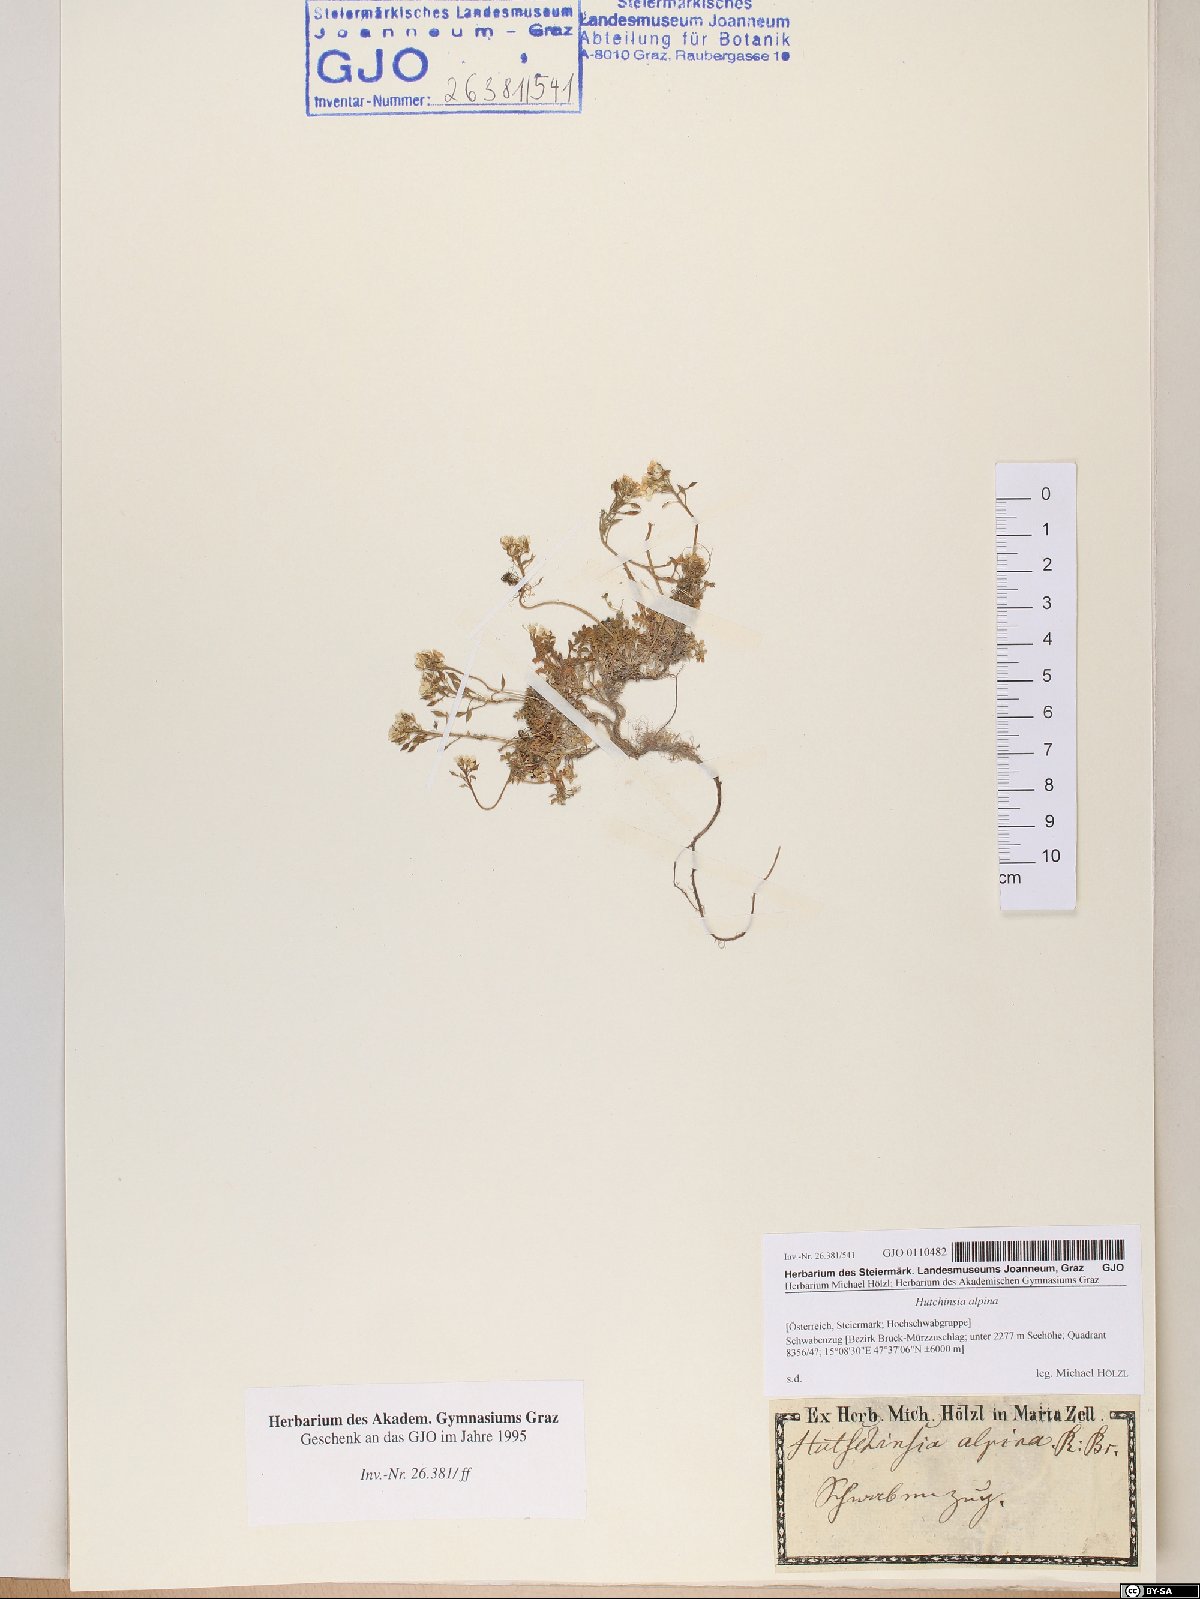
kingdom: Plantae
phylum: Tracheophyta
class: Magnoliopsida
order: Brassicales
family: Brassicaceae
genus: Hornungia
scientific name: Hornungia alpina
